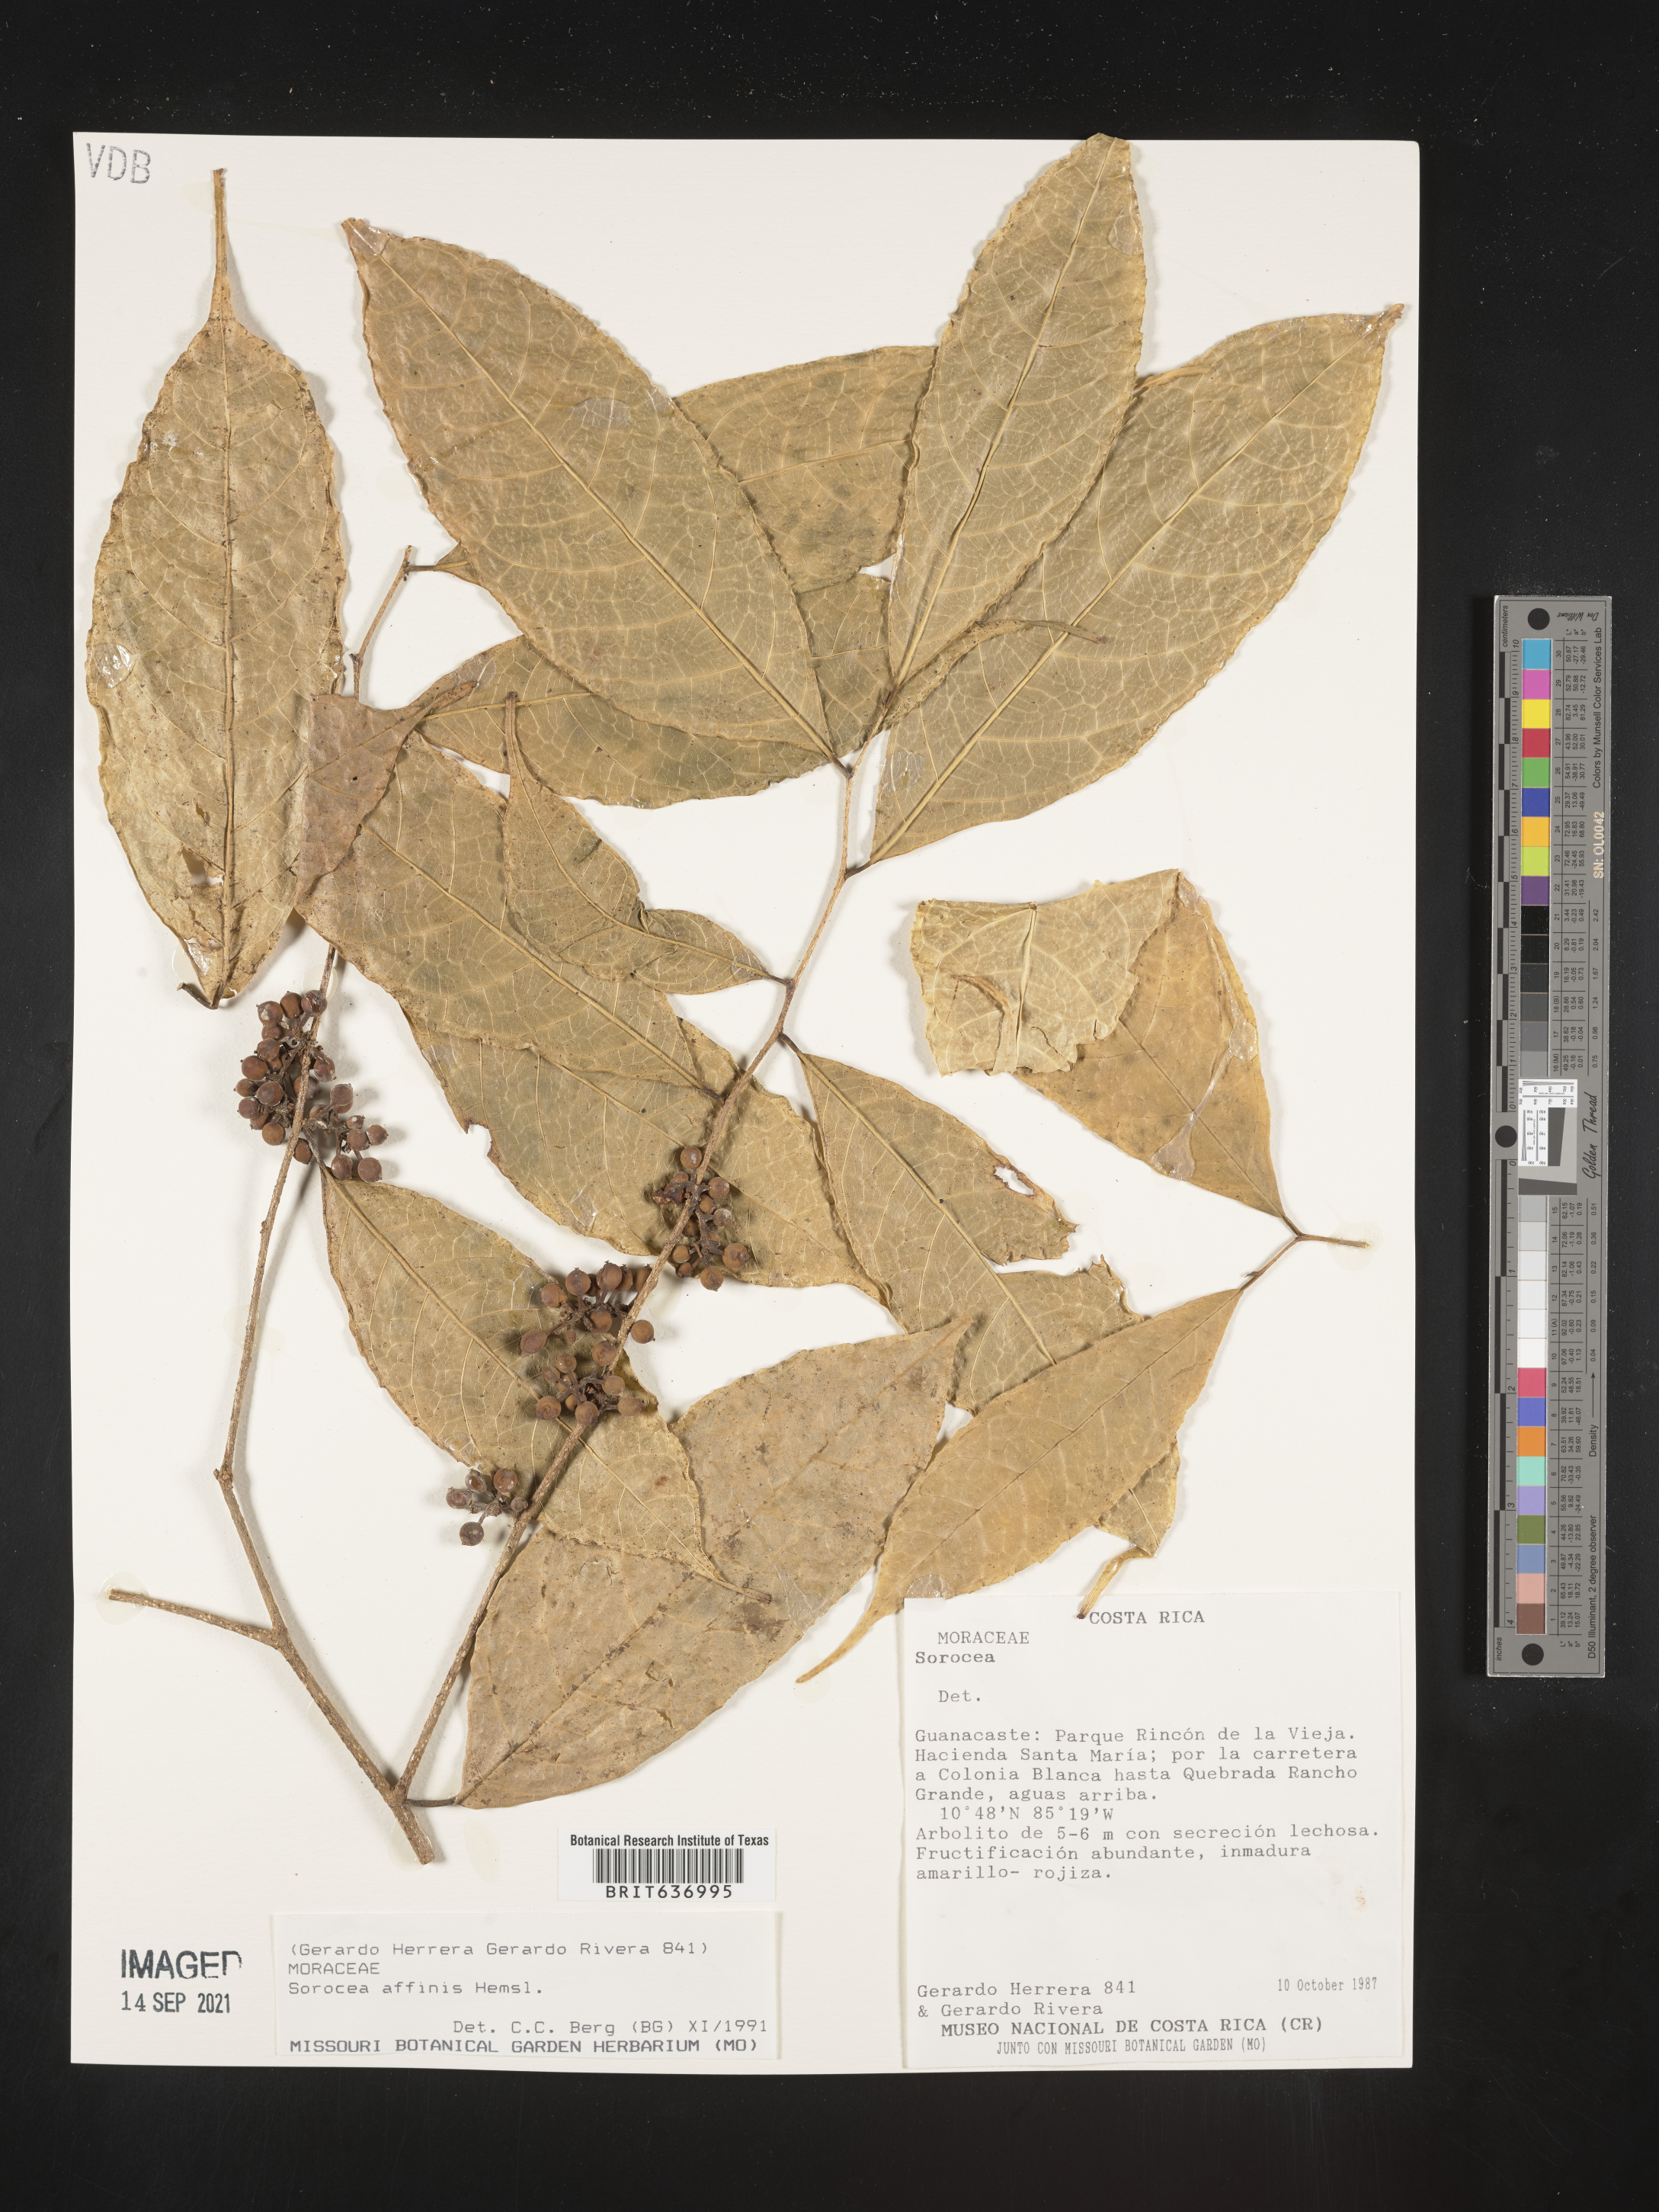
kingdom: Plantae
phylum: Tracheophyta
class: Magnoliopsida
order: Rosales
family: Moraceae
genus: Sorocea
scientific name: Sorocea
